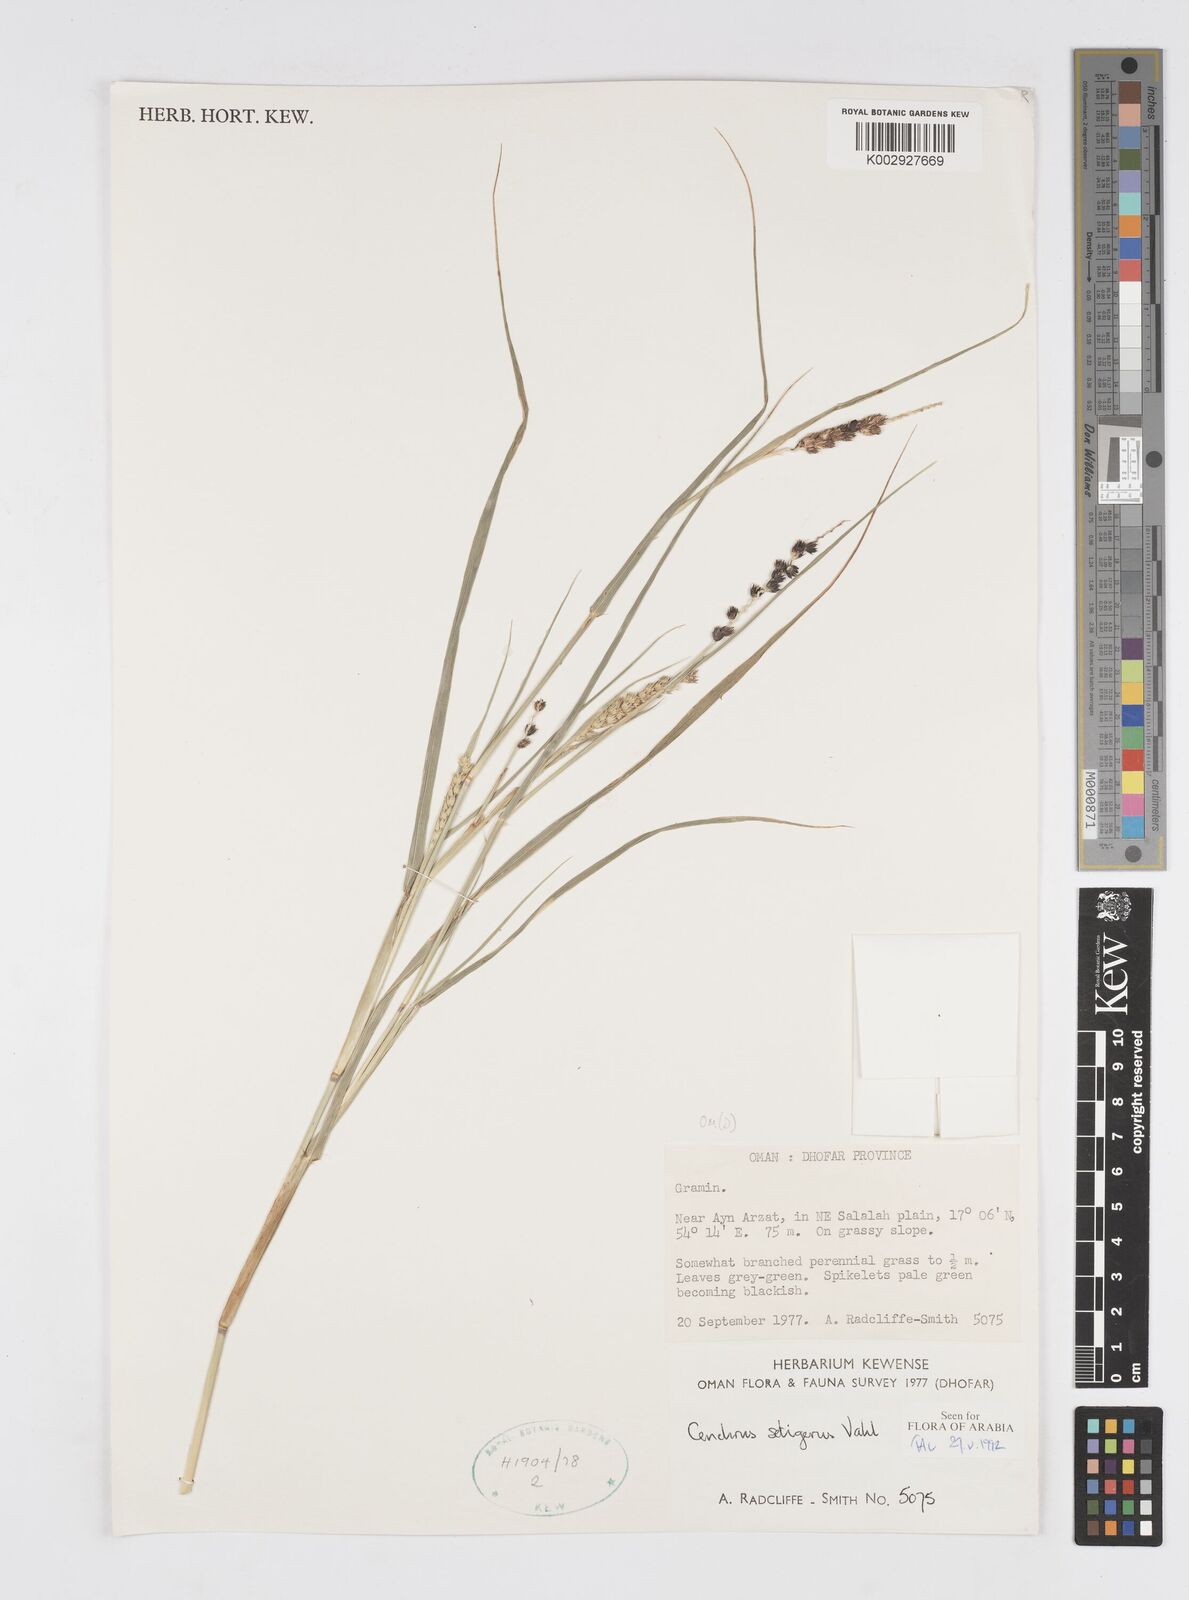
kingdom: Plantae
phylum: Tracheophyta
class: Liliopsida
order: Poales
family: Poaceae
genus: Cenchrus
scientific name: Cenchrus setigerus
